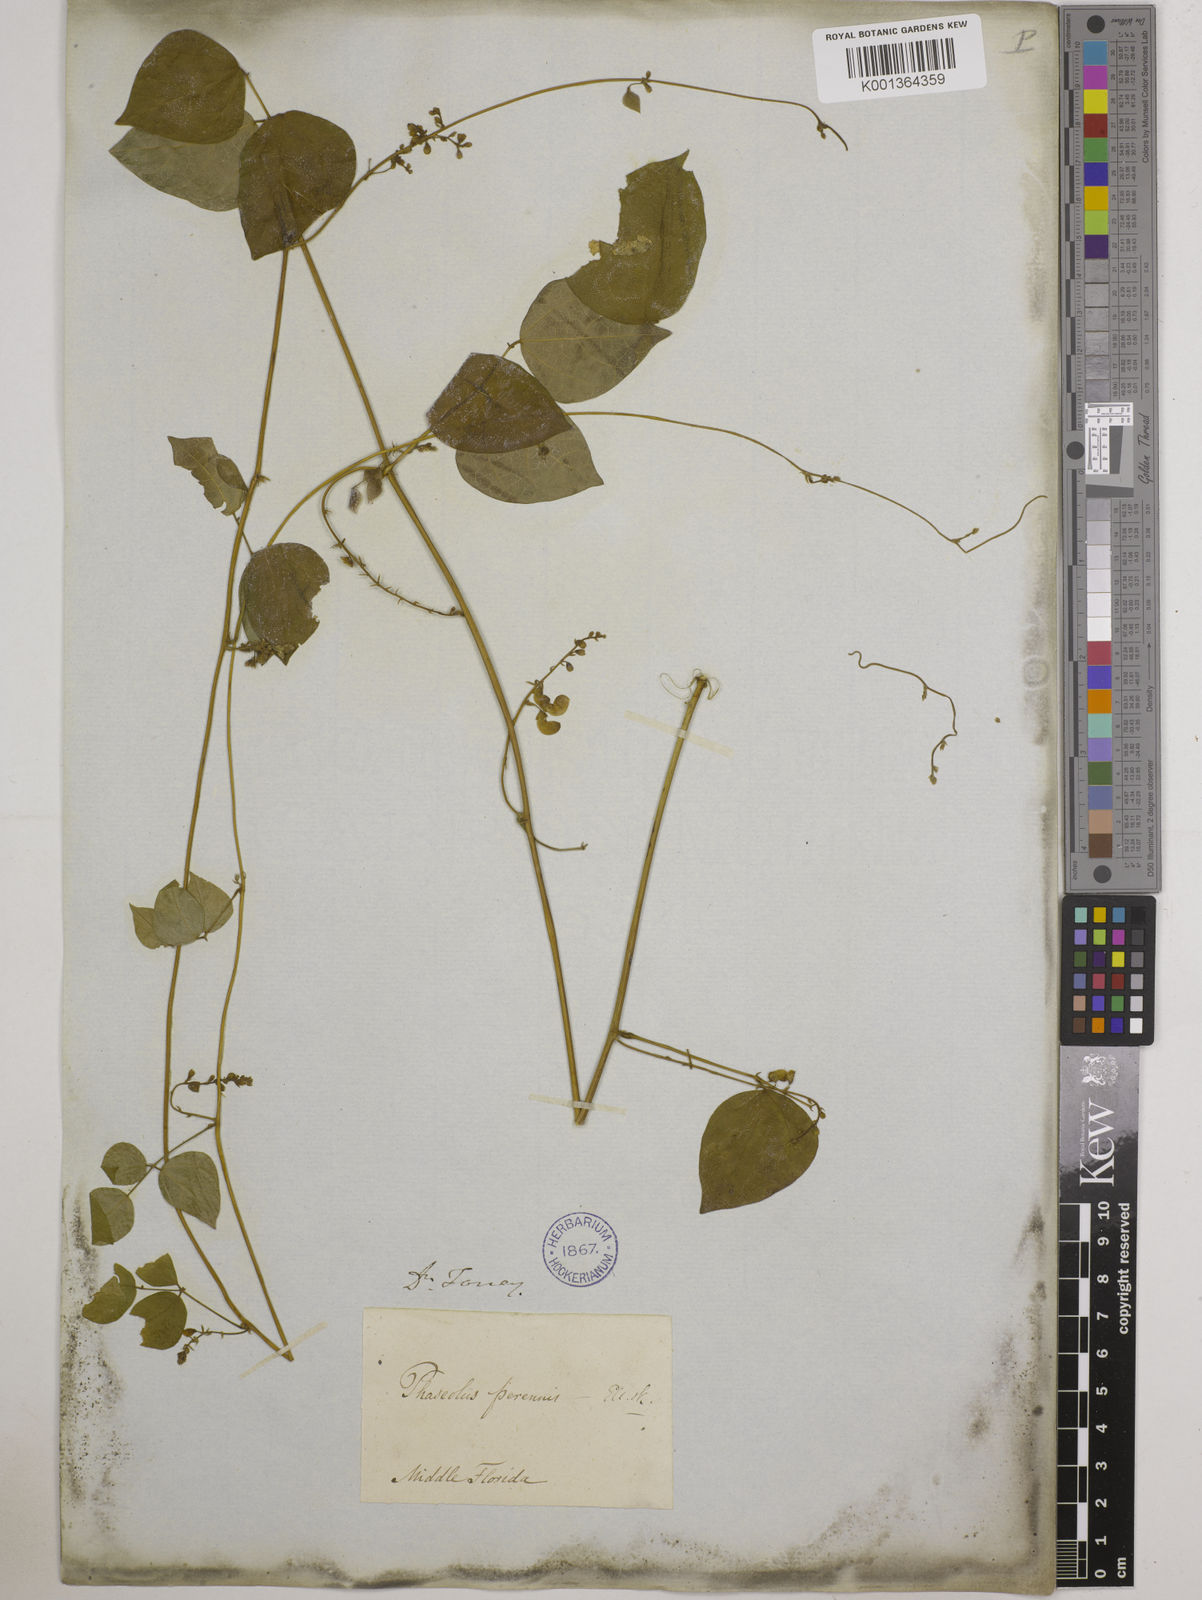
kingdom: Plantae
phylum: Tracheophyta
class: Magnoliopsida
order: Fabales
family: Fabaceae
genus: Phaseolus
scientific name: Phaseolus
